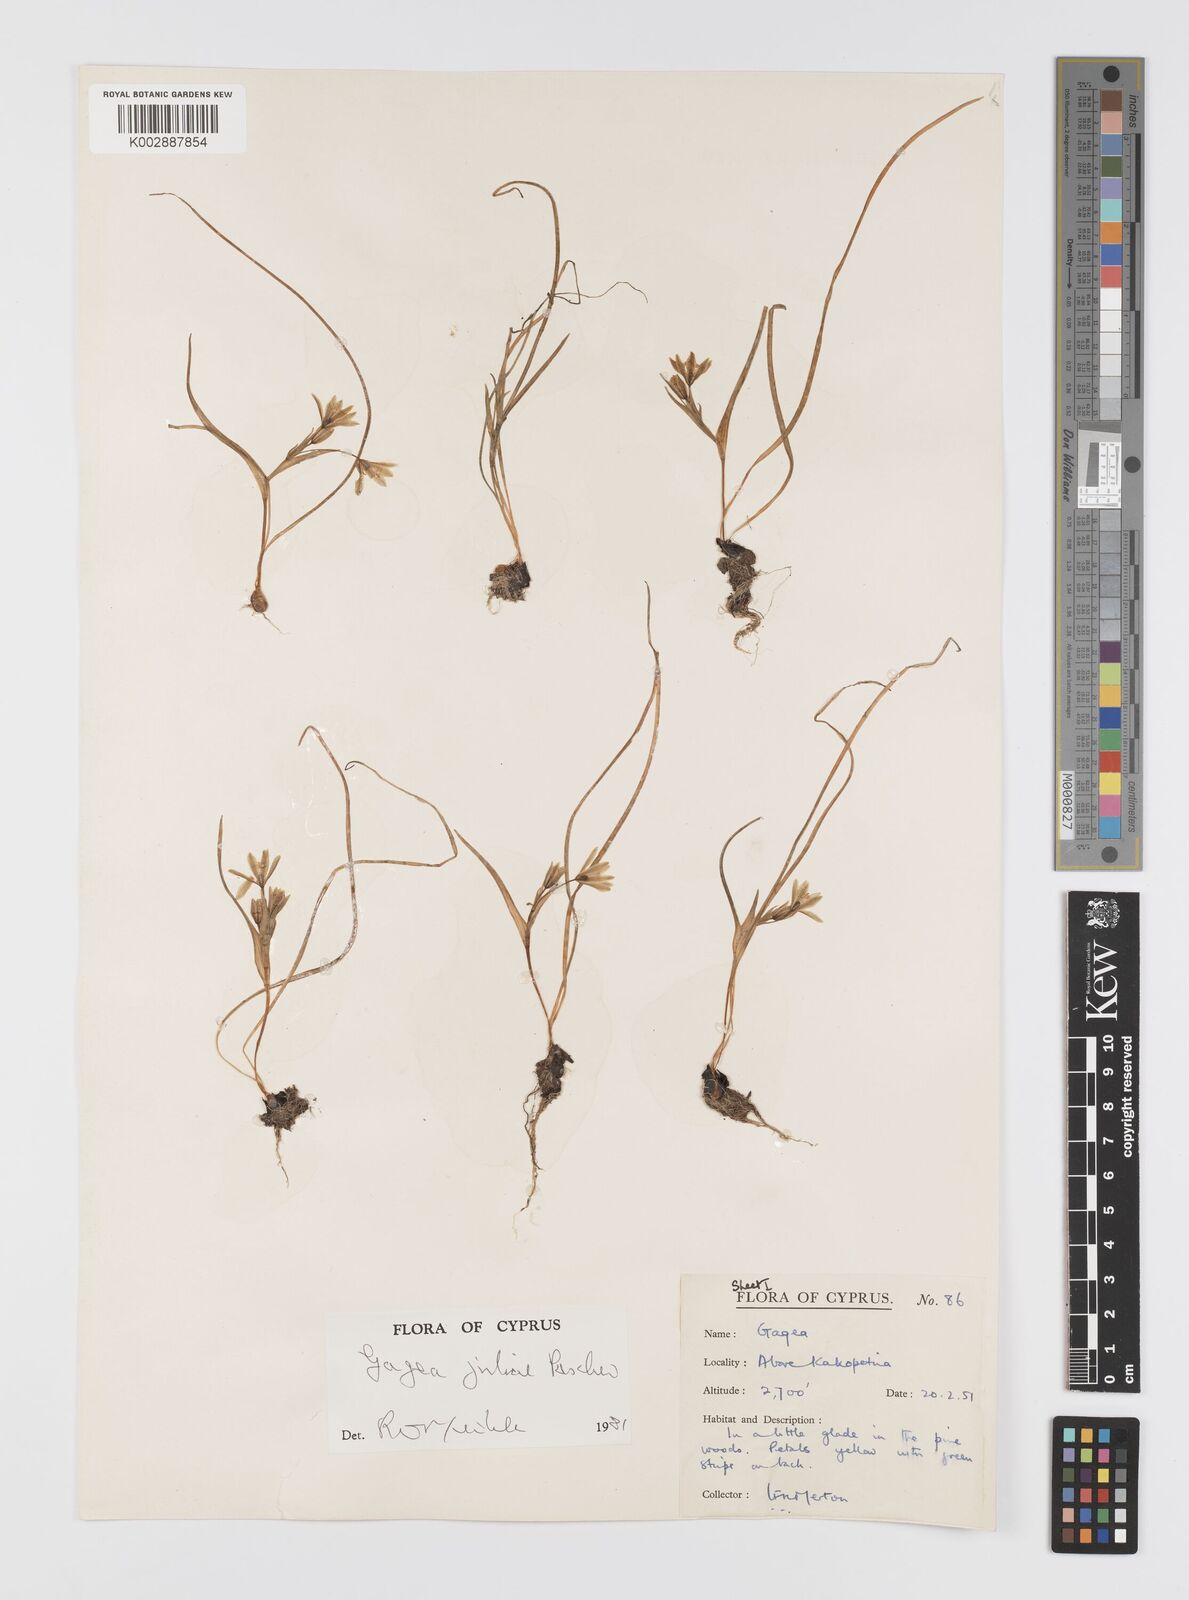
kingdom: Plantae
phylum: Tracheophyta
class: Liliopsida
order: Liliales
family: Liliaceae
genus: Gagea
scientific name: Gagea juliae
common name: Julia’s gagea
